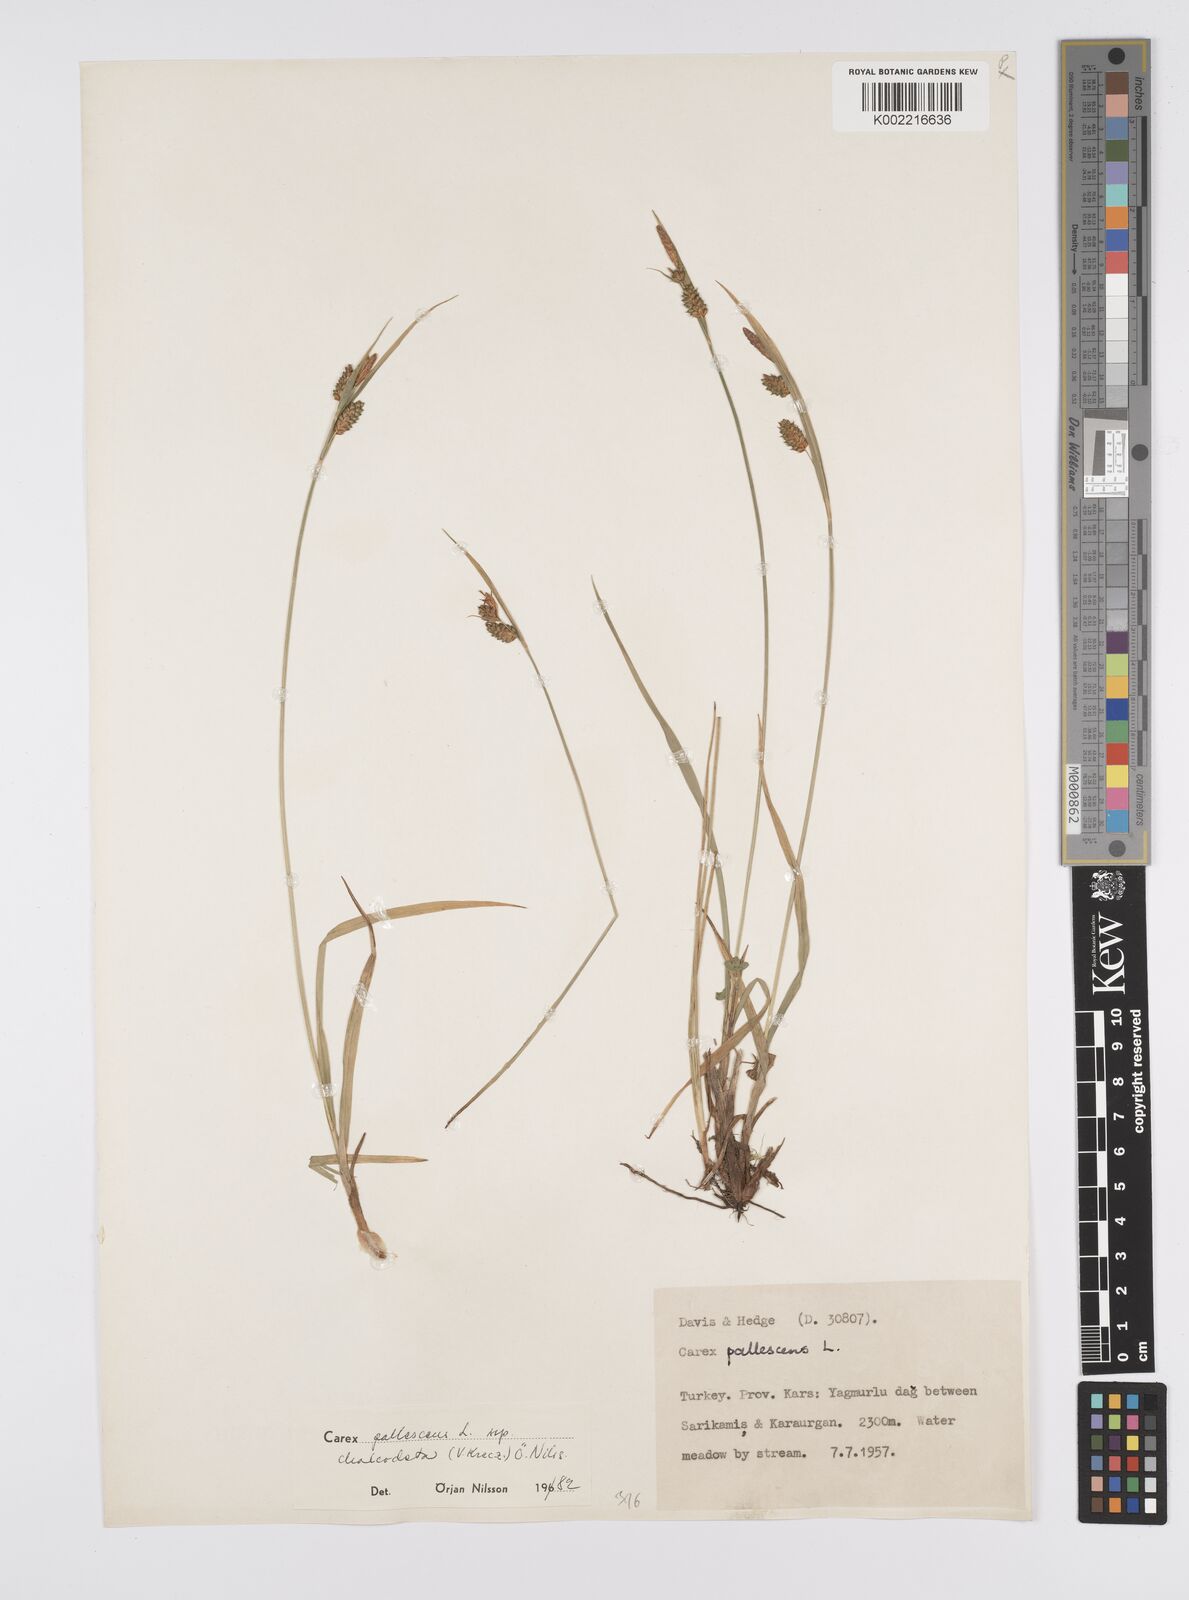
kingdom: Plantae
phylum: Tracheophyta
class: Liliopsida
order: Poales
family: Cyperaceae
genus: Carex
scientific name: Carex pallescens
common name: Pale sedge
